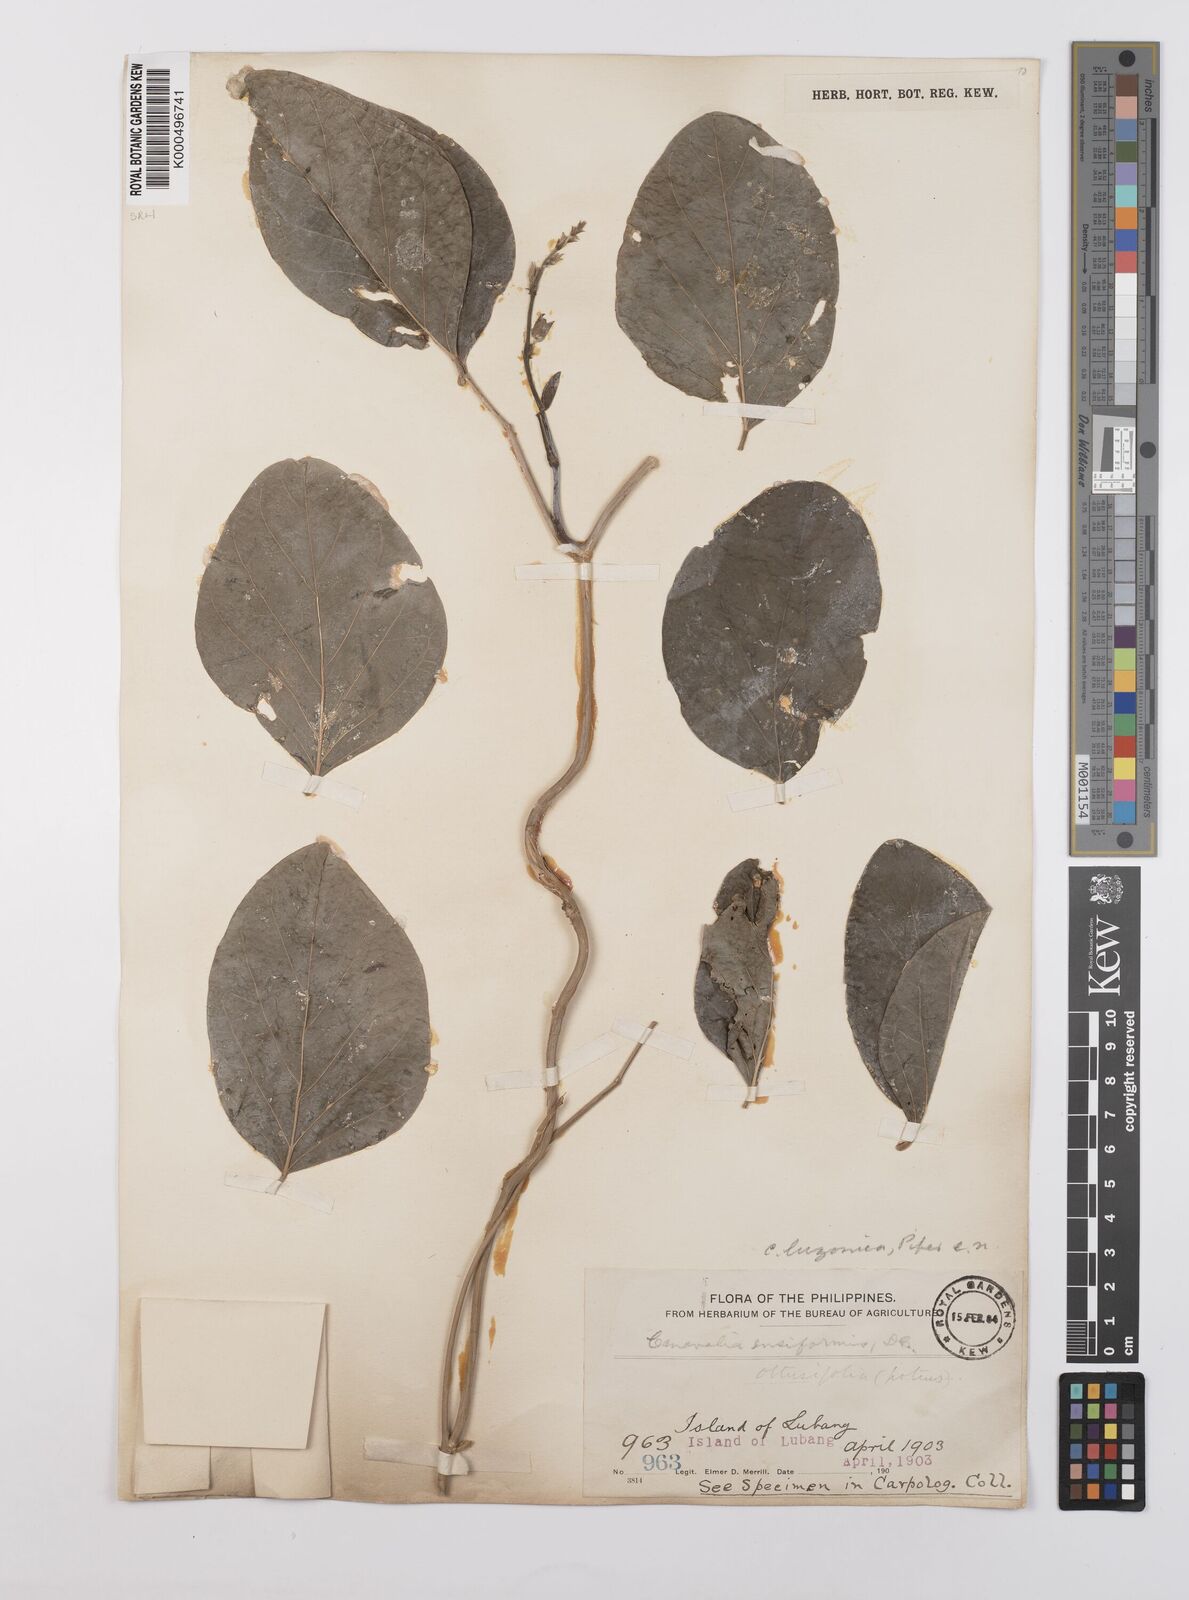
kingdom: Plantae
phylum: Tracheophyta
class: Magnoliopsida
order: Fabales
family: Fabaceae
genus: Canavalia
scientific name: Canavalia macrobotrys
